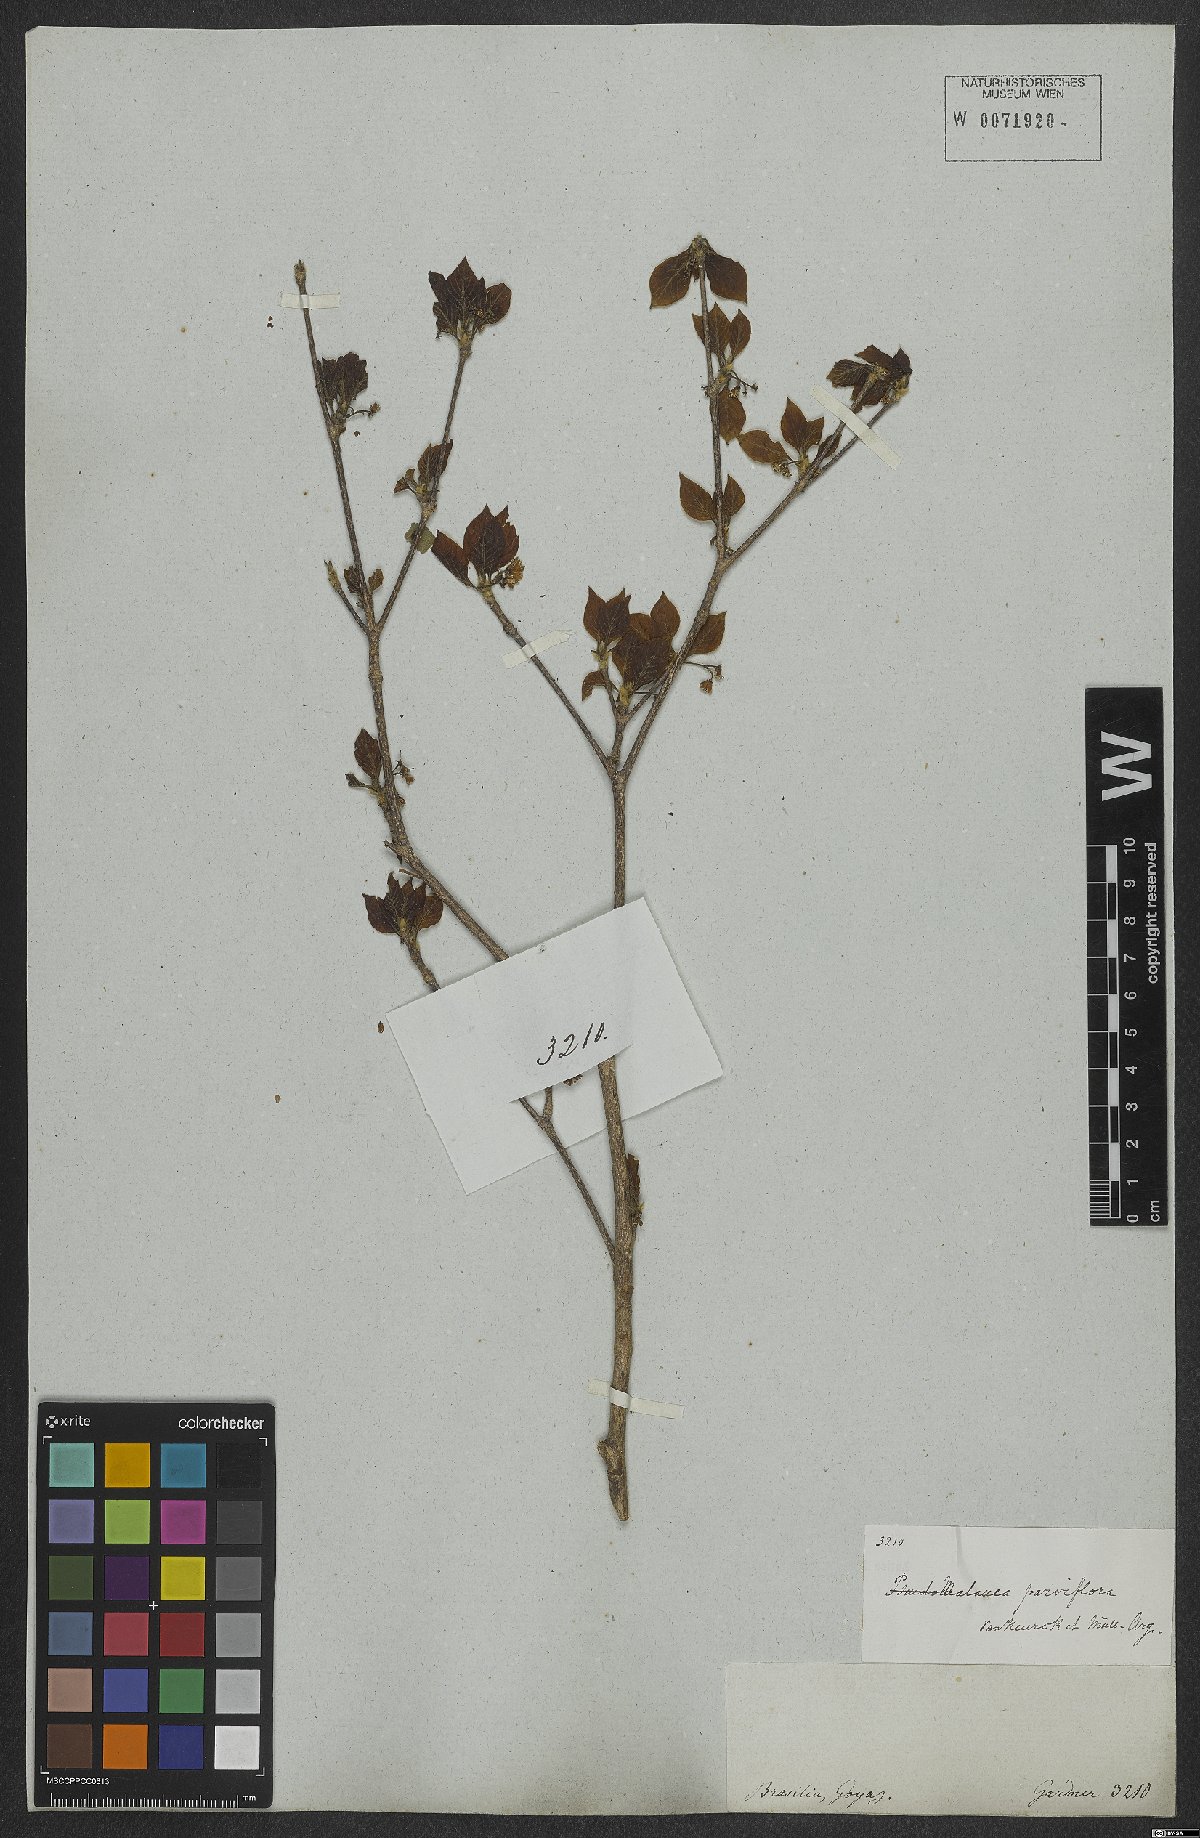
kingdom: Plantae
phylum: Tracheophyta
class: Magnoliopsida
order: Gentianales
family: Rubiaceae
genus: Chomelia
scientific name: Chomelia parviflora
